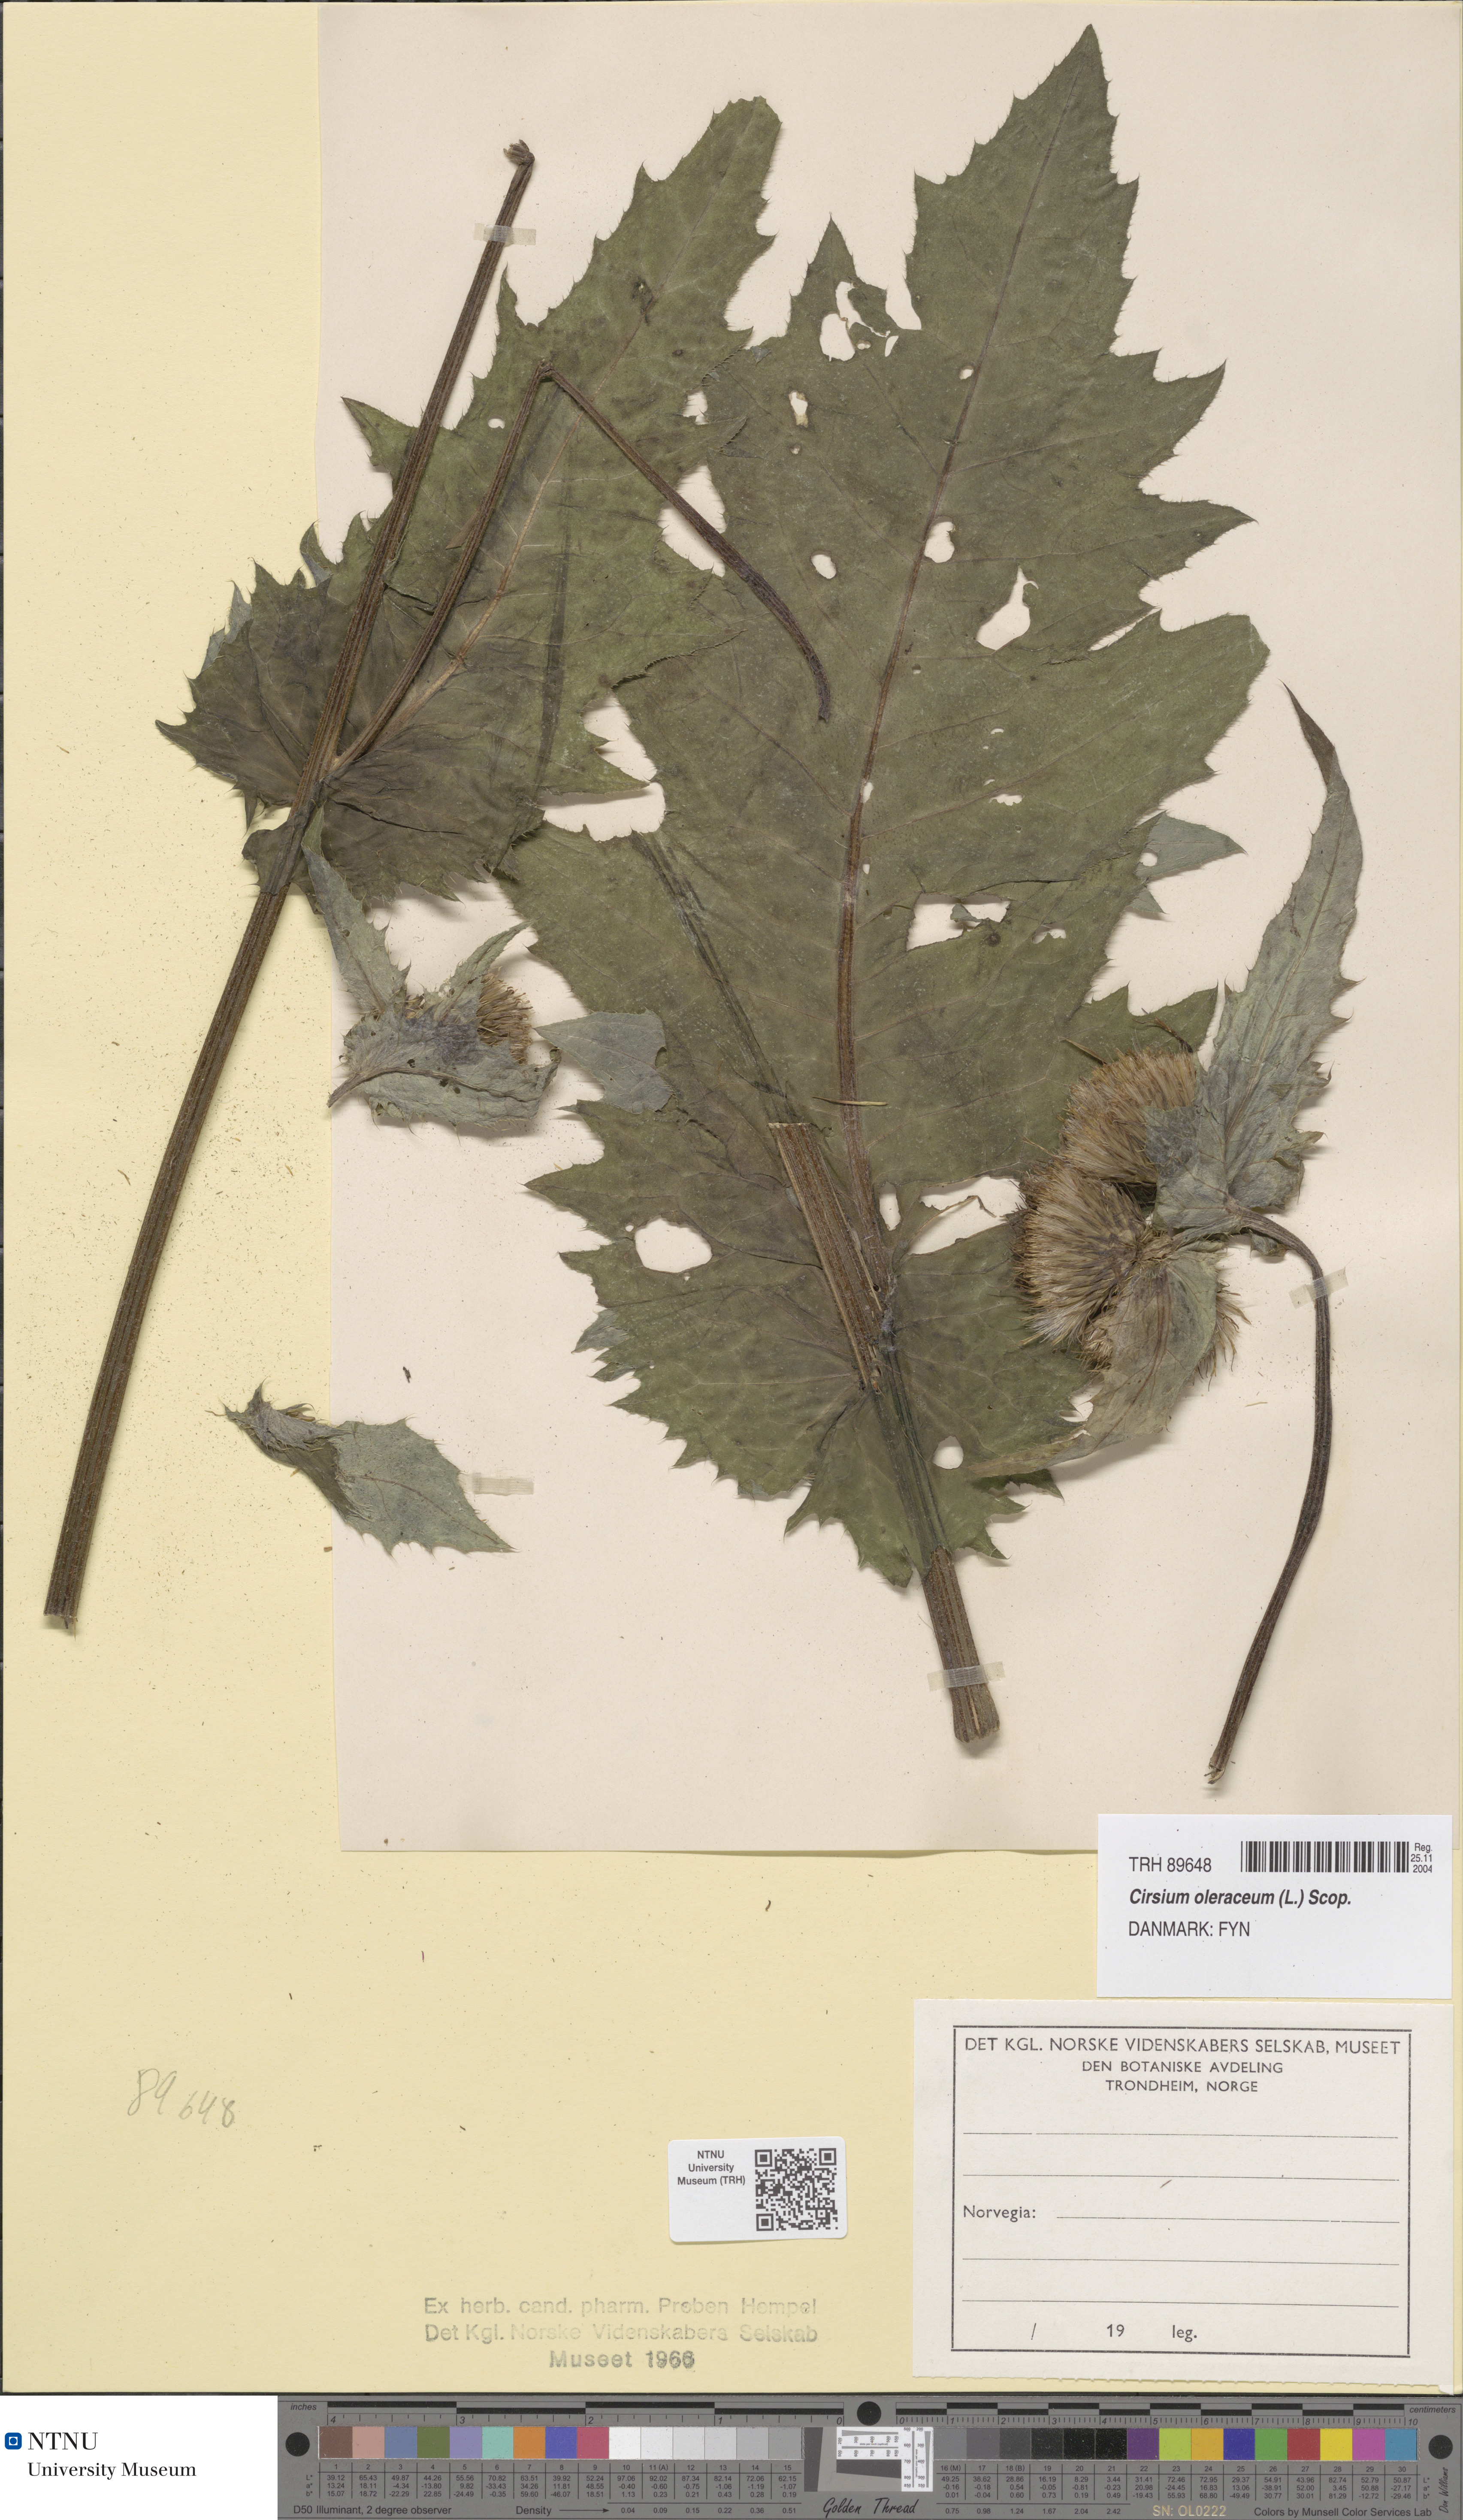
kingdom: Plantae
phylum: Tracheophyta
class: Magnoliopsida
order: Asterales
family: Asteraceae
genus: Cirsium
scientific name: Cirsium oleraceum
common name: Cabbage thistle
